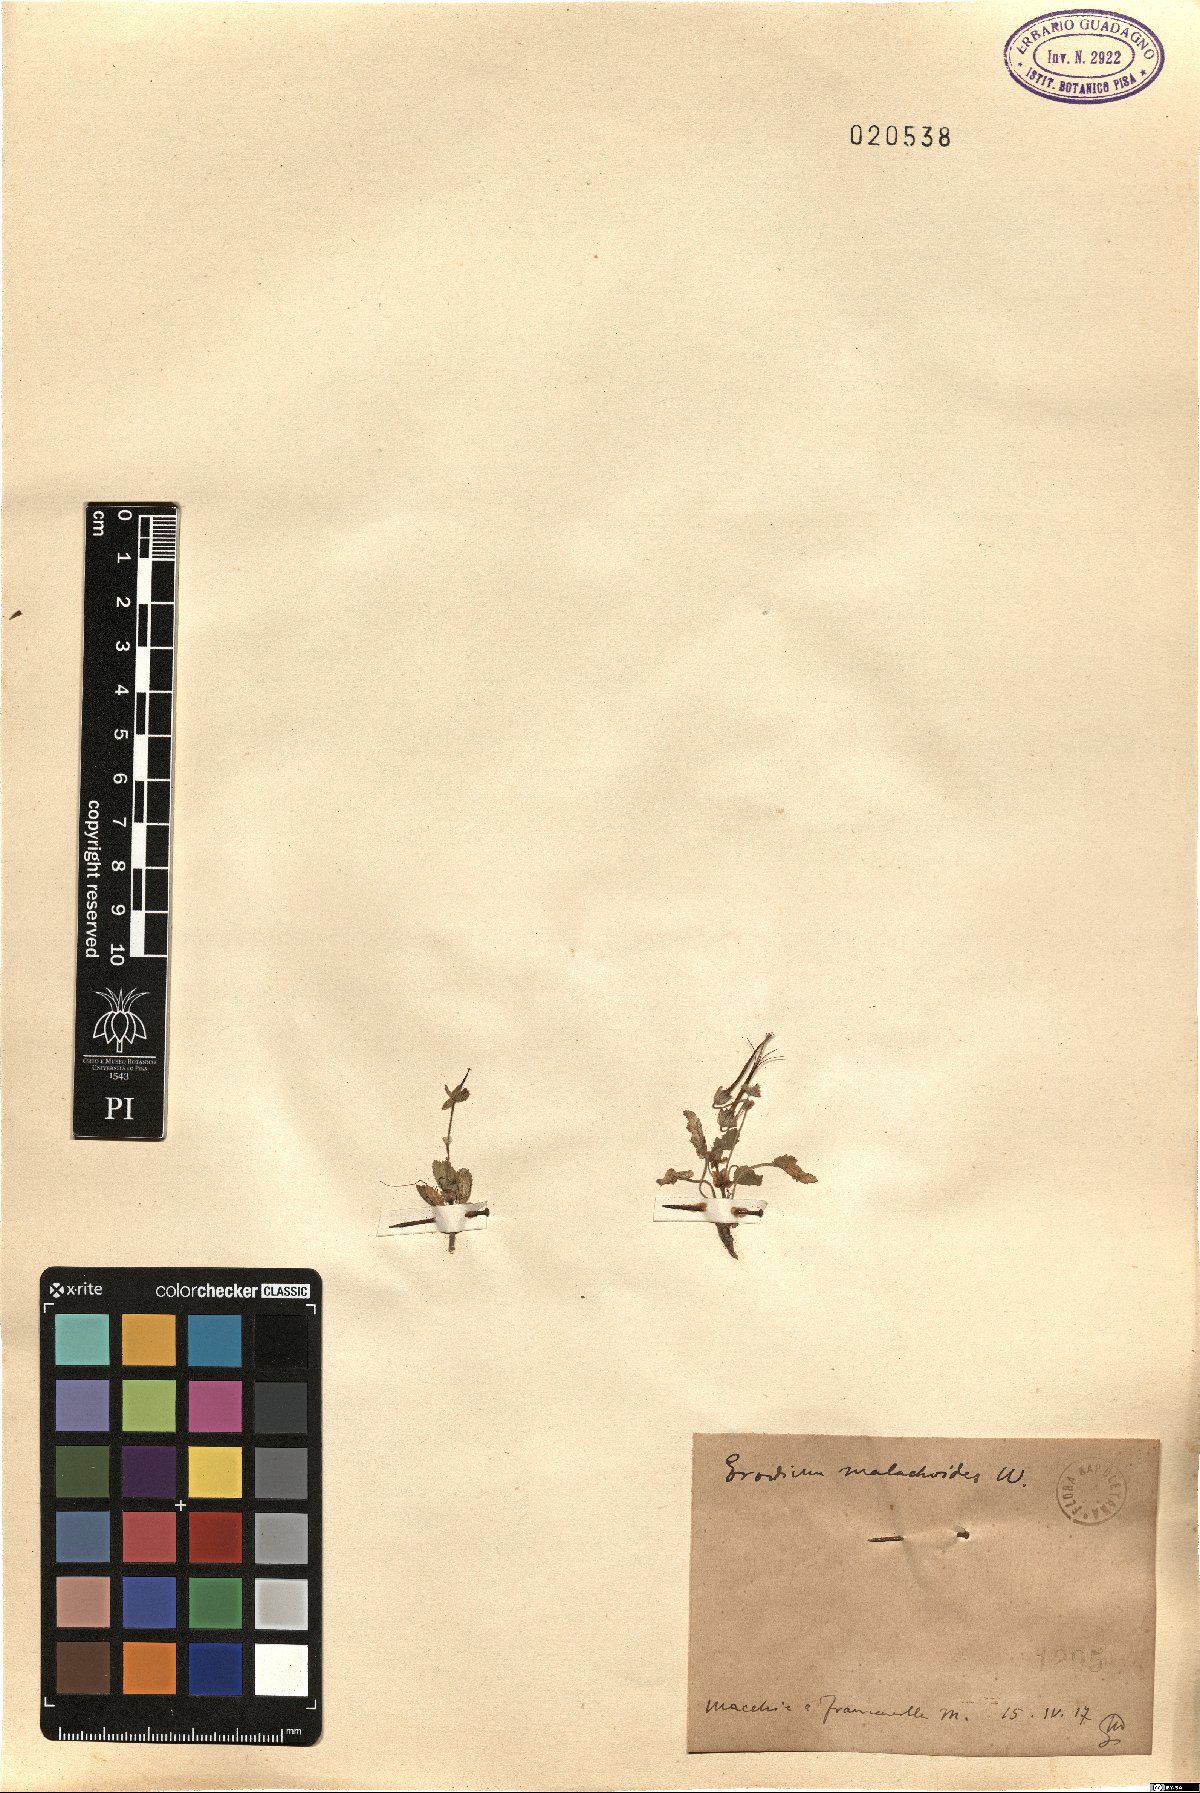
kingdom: Plantae
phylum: Tracheophyta
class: Magnoliopsida
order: Geraniales
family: Geraniaceae
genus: Erodium
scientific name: Erodium malacoides
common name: Soft stork's-bill
